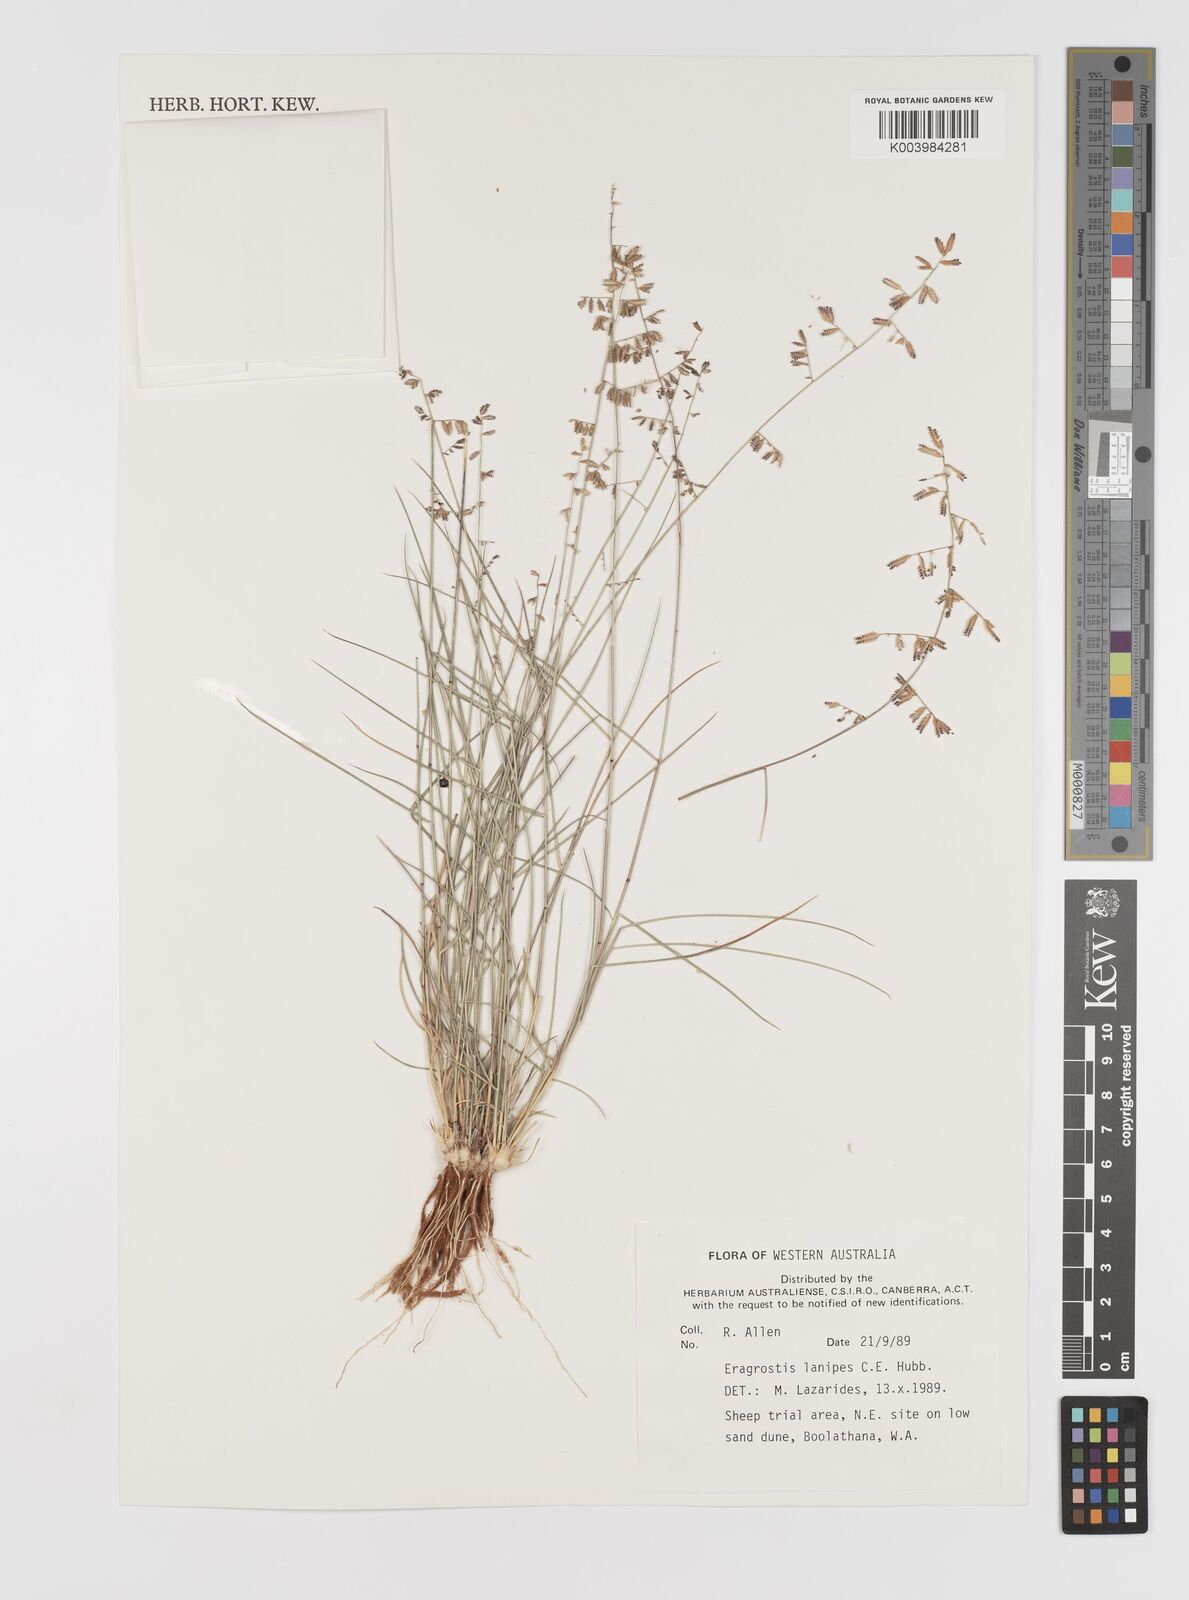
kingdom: Plantae
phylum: Tracheophyta
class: Liliopsida
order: Poales
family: Poaceae
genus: Eragrostis
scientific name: Eragrostis lanipes
